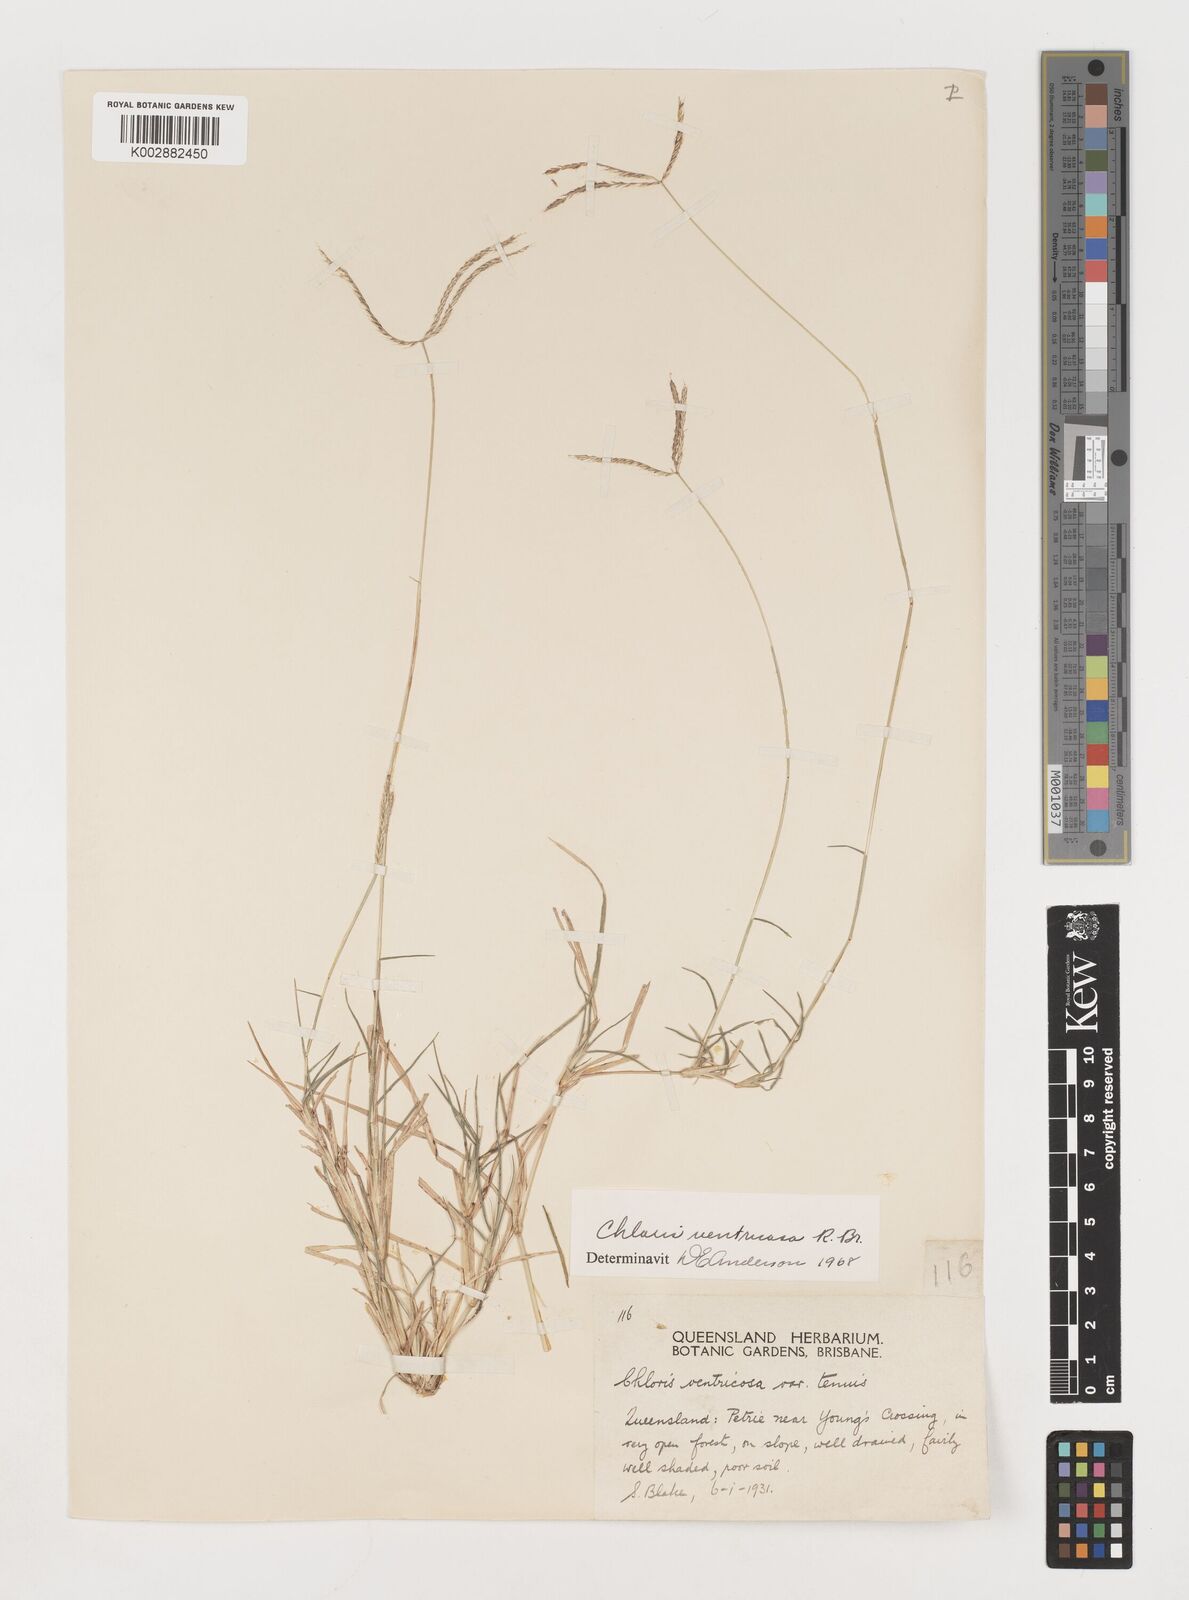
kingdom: Plantae
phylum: Tracheophyta
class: Liliopsida
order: Poales
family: Poaceae
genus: Chloris
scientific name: Chloris ventricosa
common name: Australian windmill grass
